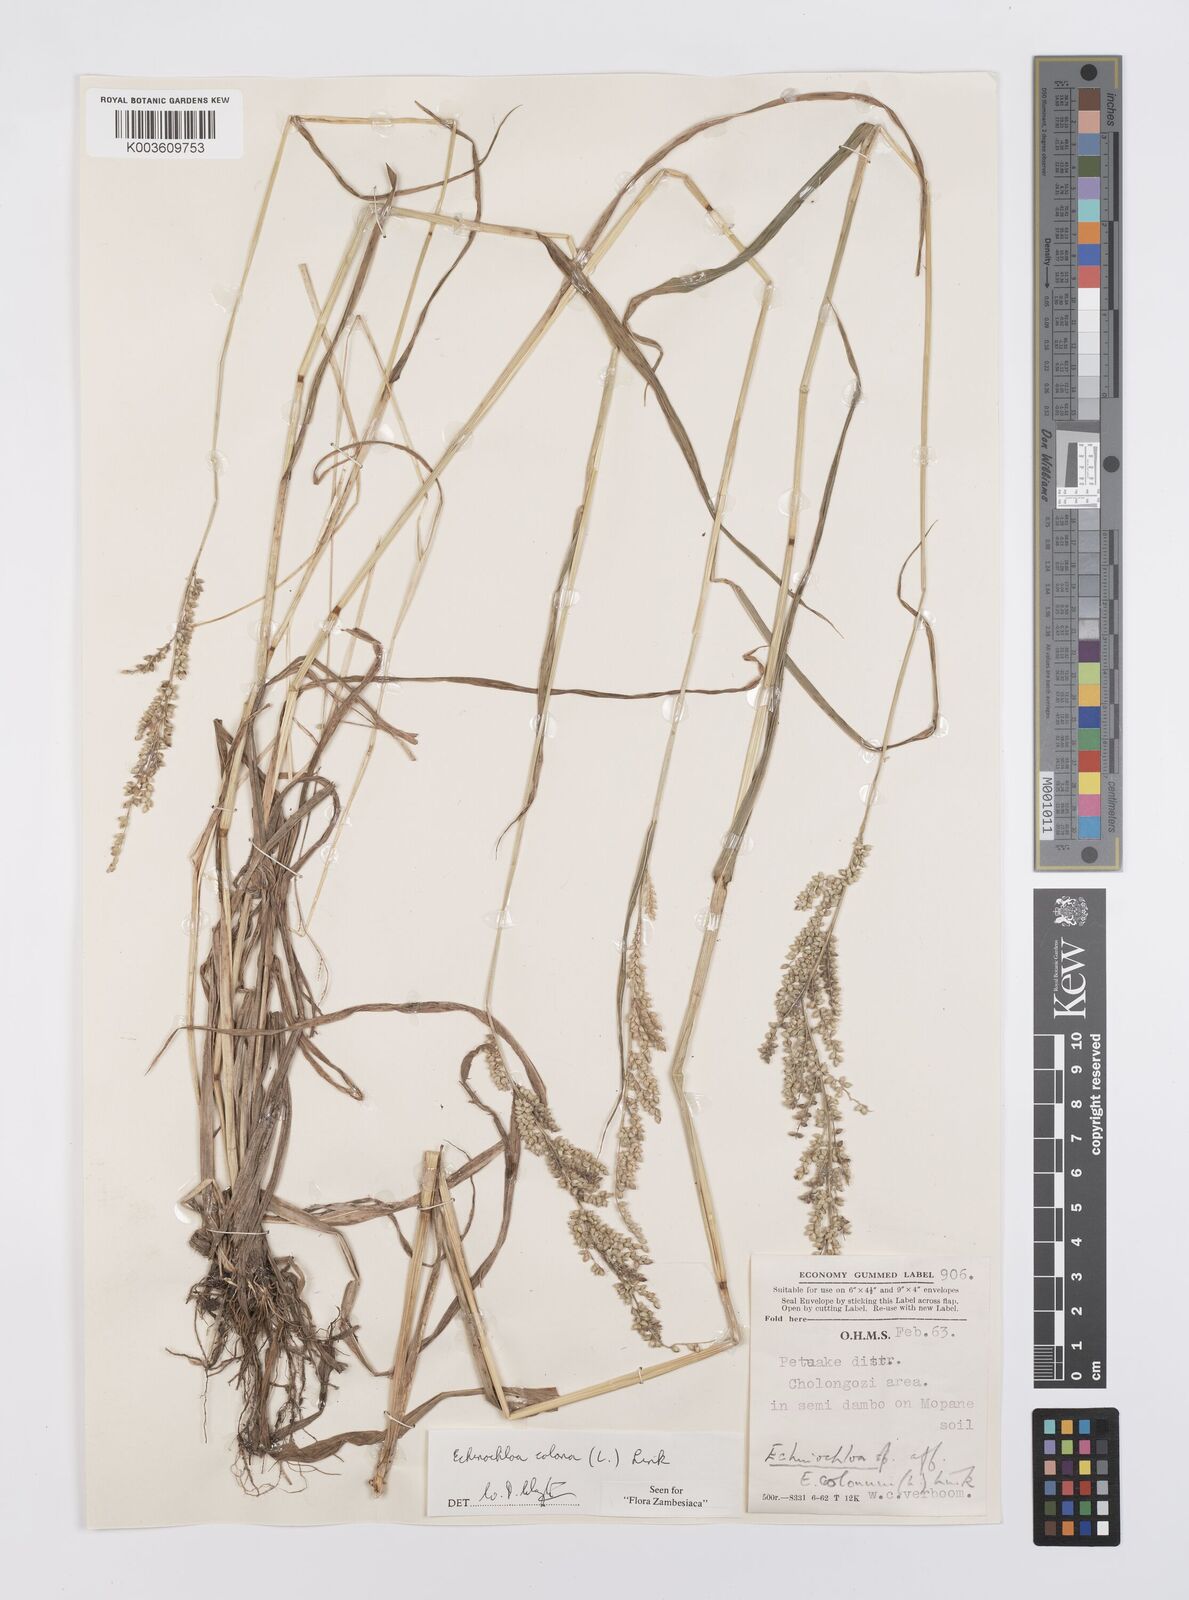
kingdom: Plantae
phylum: Tracheophyta
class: Liliopsida
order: Poales
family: Poaceae
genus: Echinochloa
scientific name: Echinochloa colonum
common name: Jungle rice
